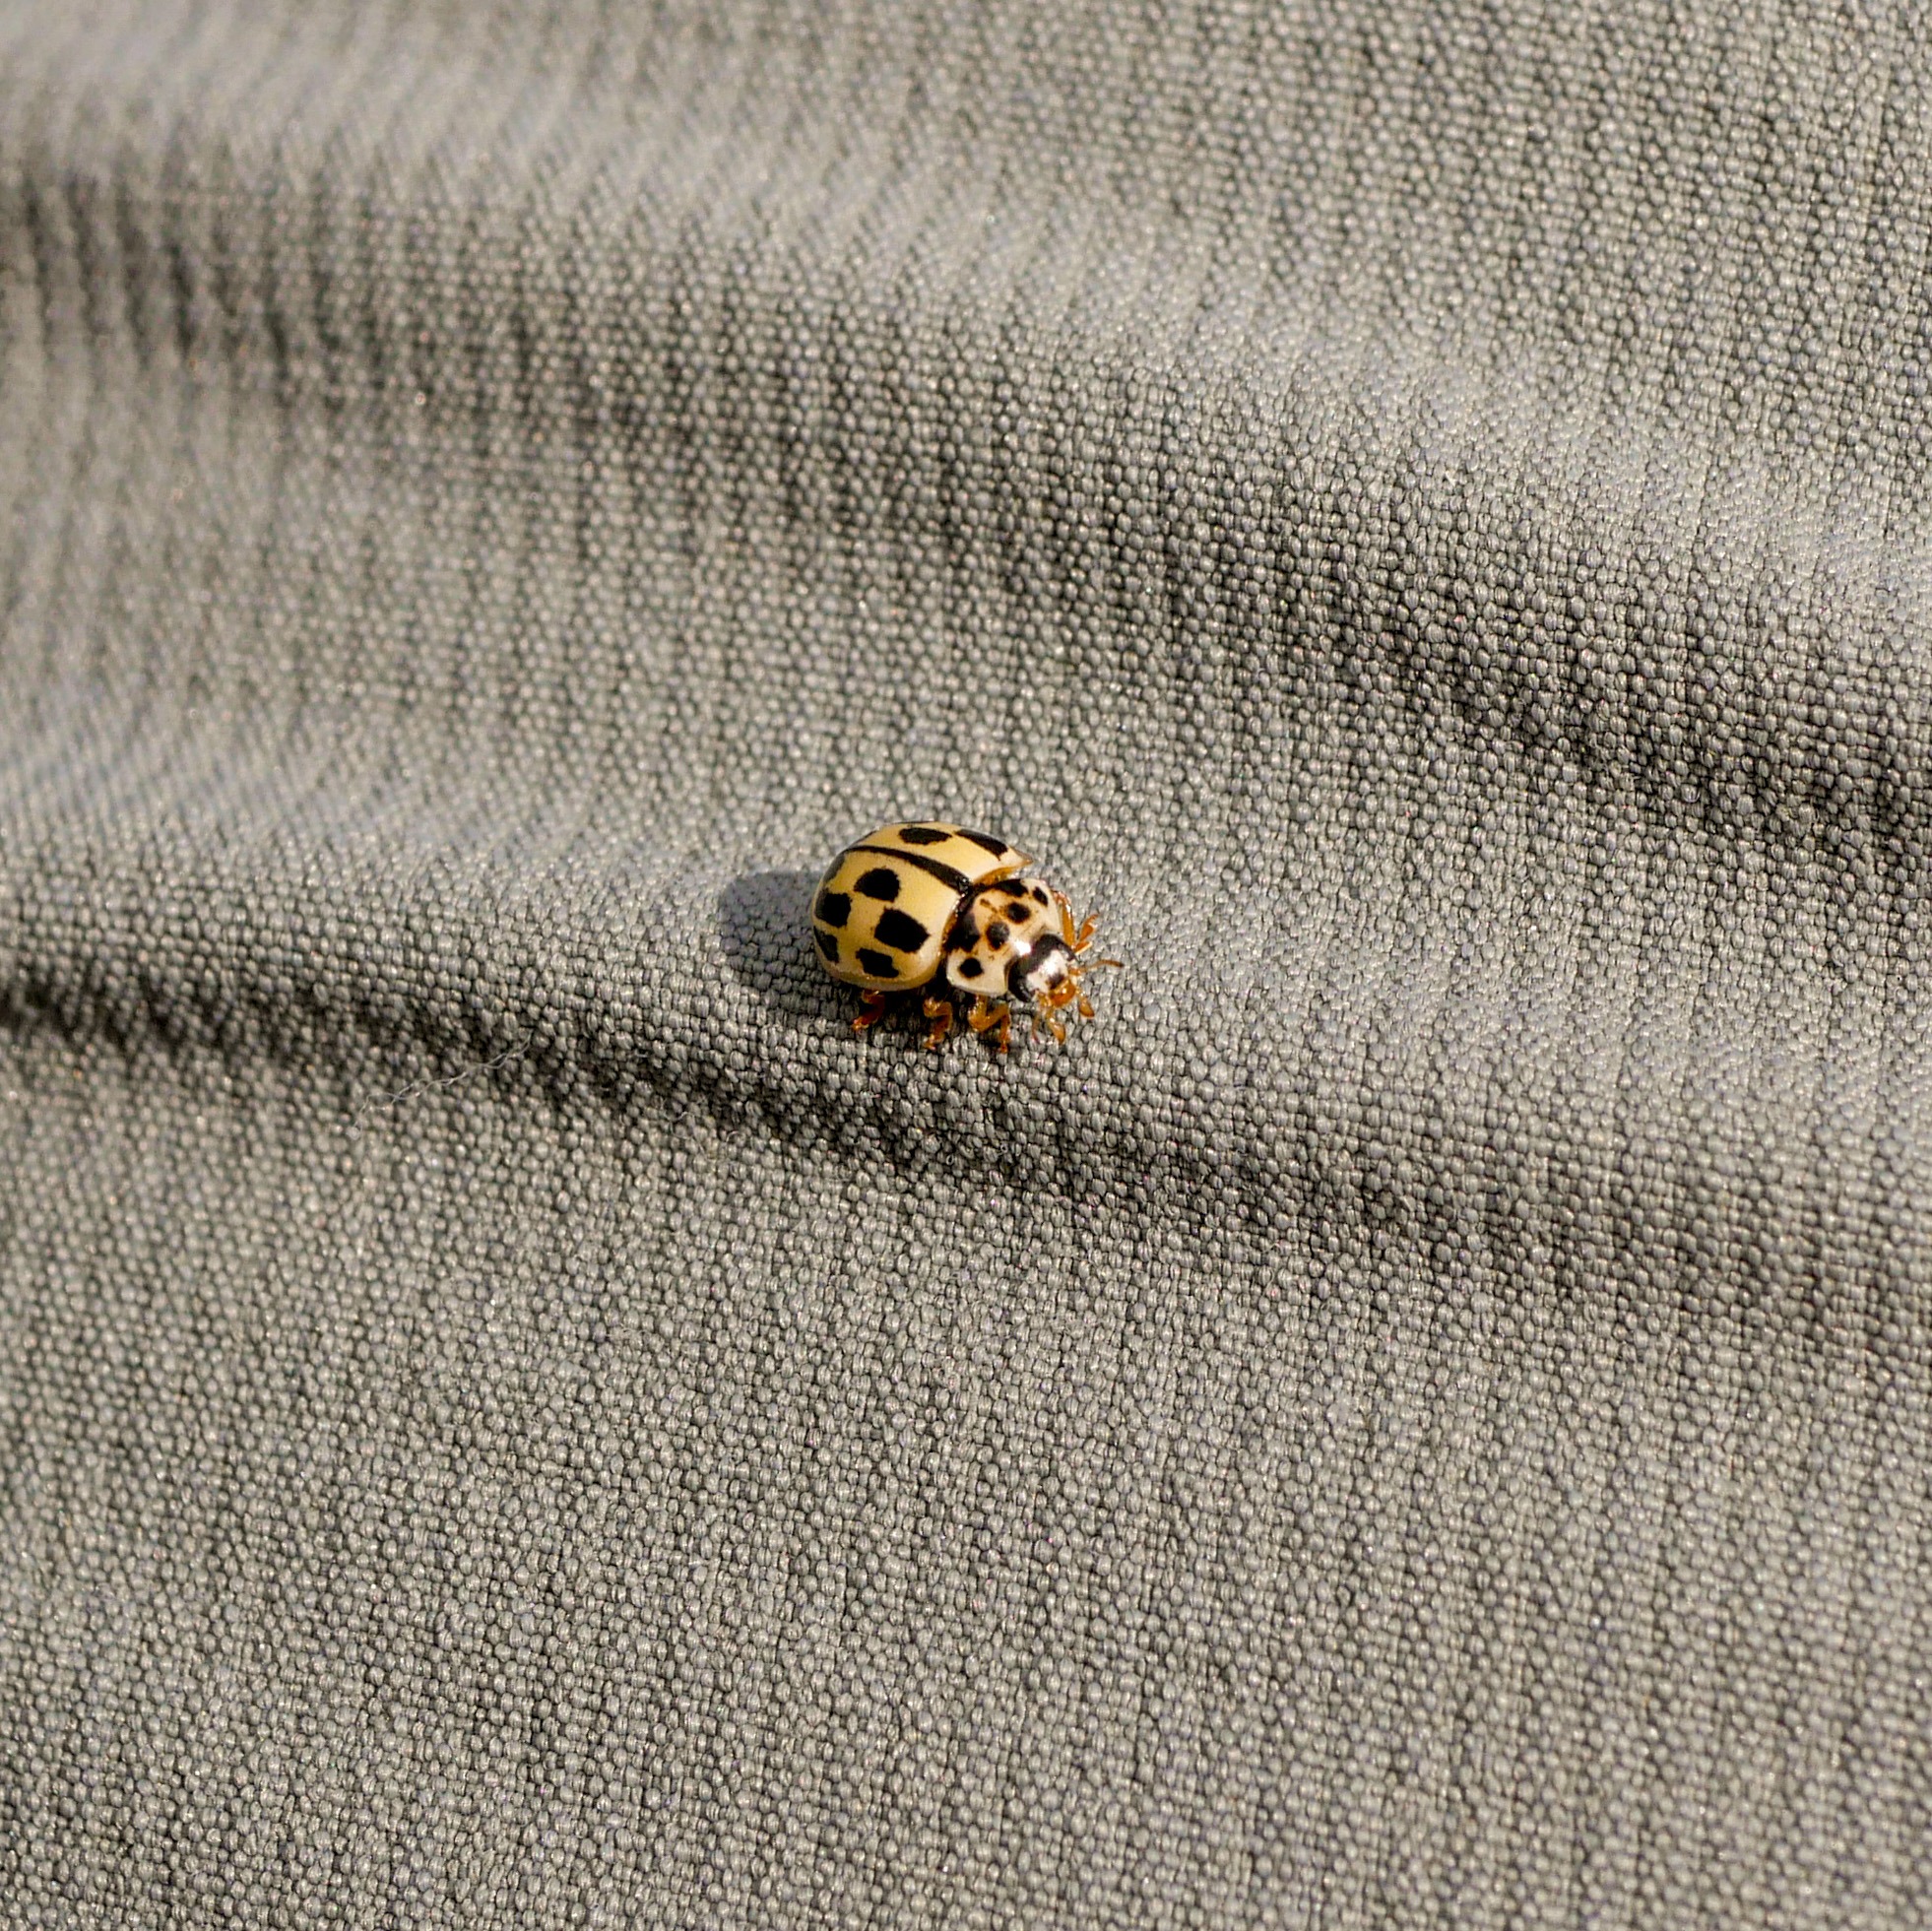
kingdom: Animalia
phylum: Arthropoda
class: Insecta
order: Coleoptera
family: Coccinellidae
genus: Propylaea
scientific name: Propylaea quatuordecimpunctata
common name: Skakbræt
